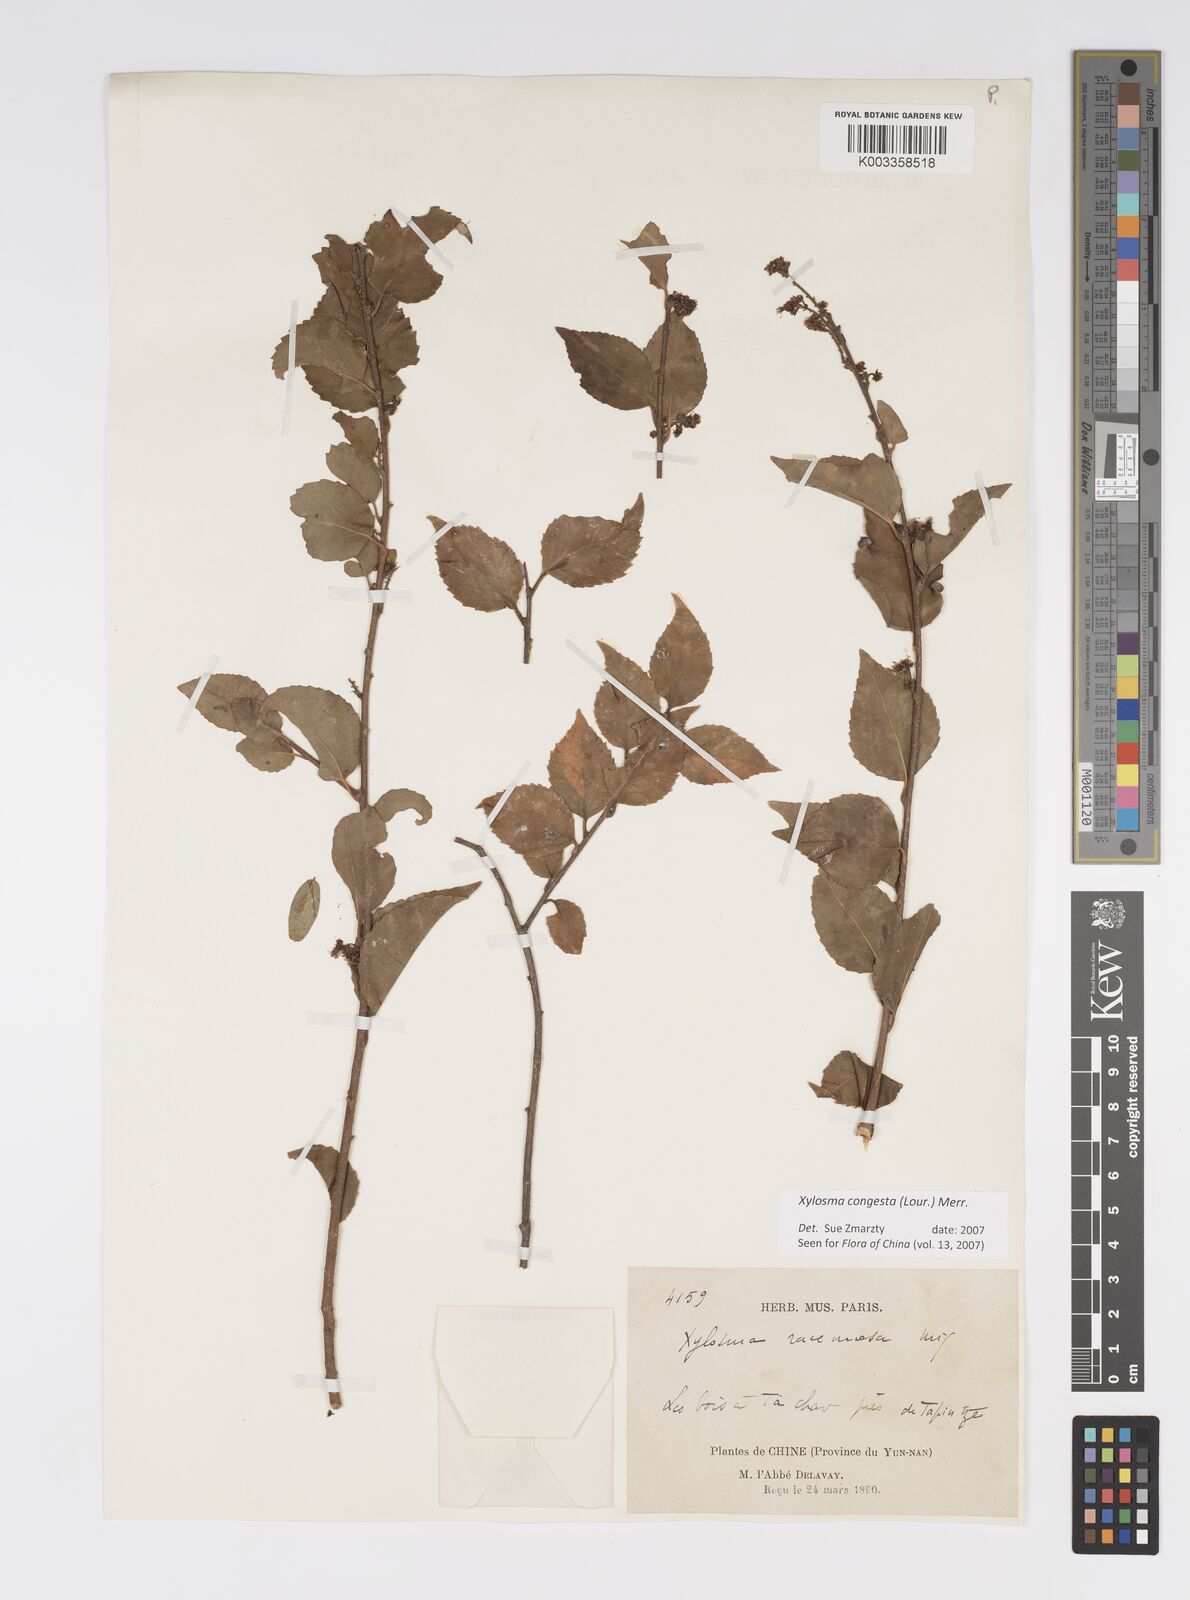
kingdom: Plantae
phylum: Tracheophyta
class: Magnoliopsida
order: Malpighiales
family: Salicaceae
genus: Xylosma
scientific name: Xylosma racemosum
